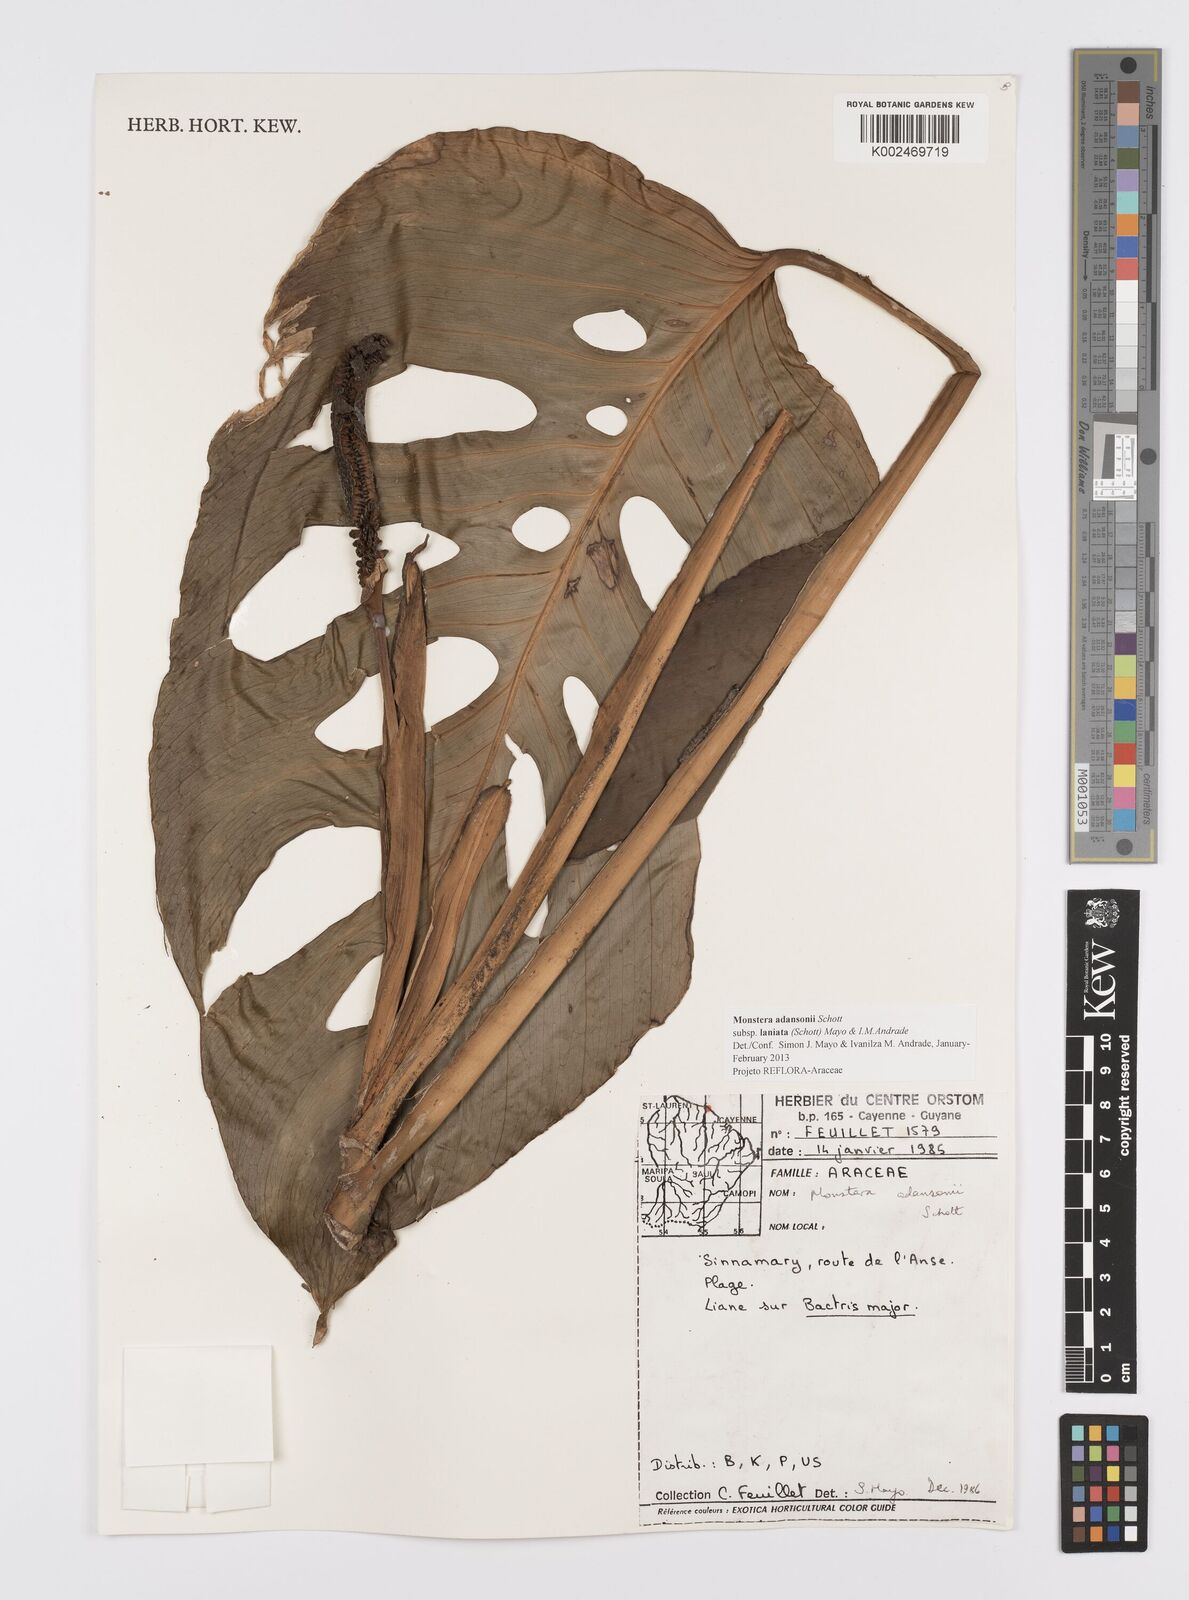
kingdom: Plantae
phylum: Tracheophyta
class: Liliopsida
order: Alismatales
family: Araceae
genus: Monstera
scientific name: Monstera adansonii
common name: Tarovine
